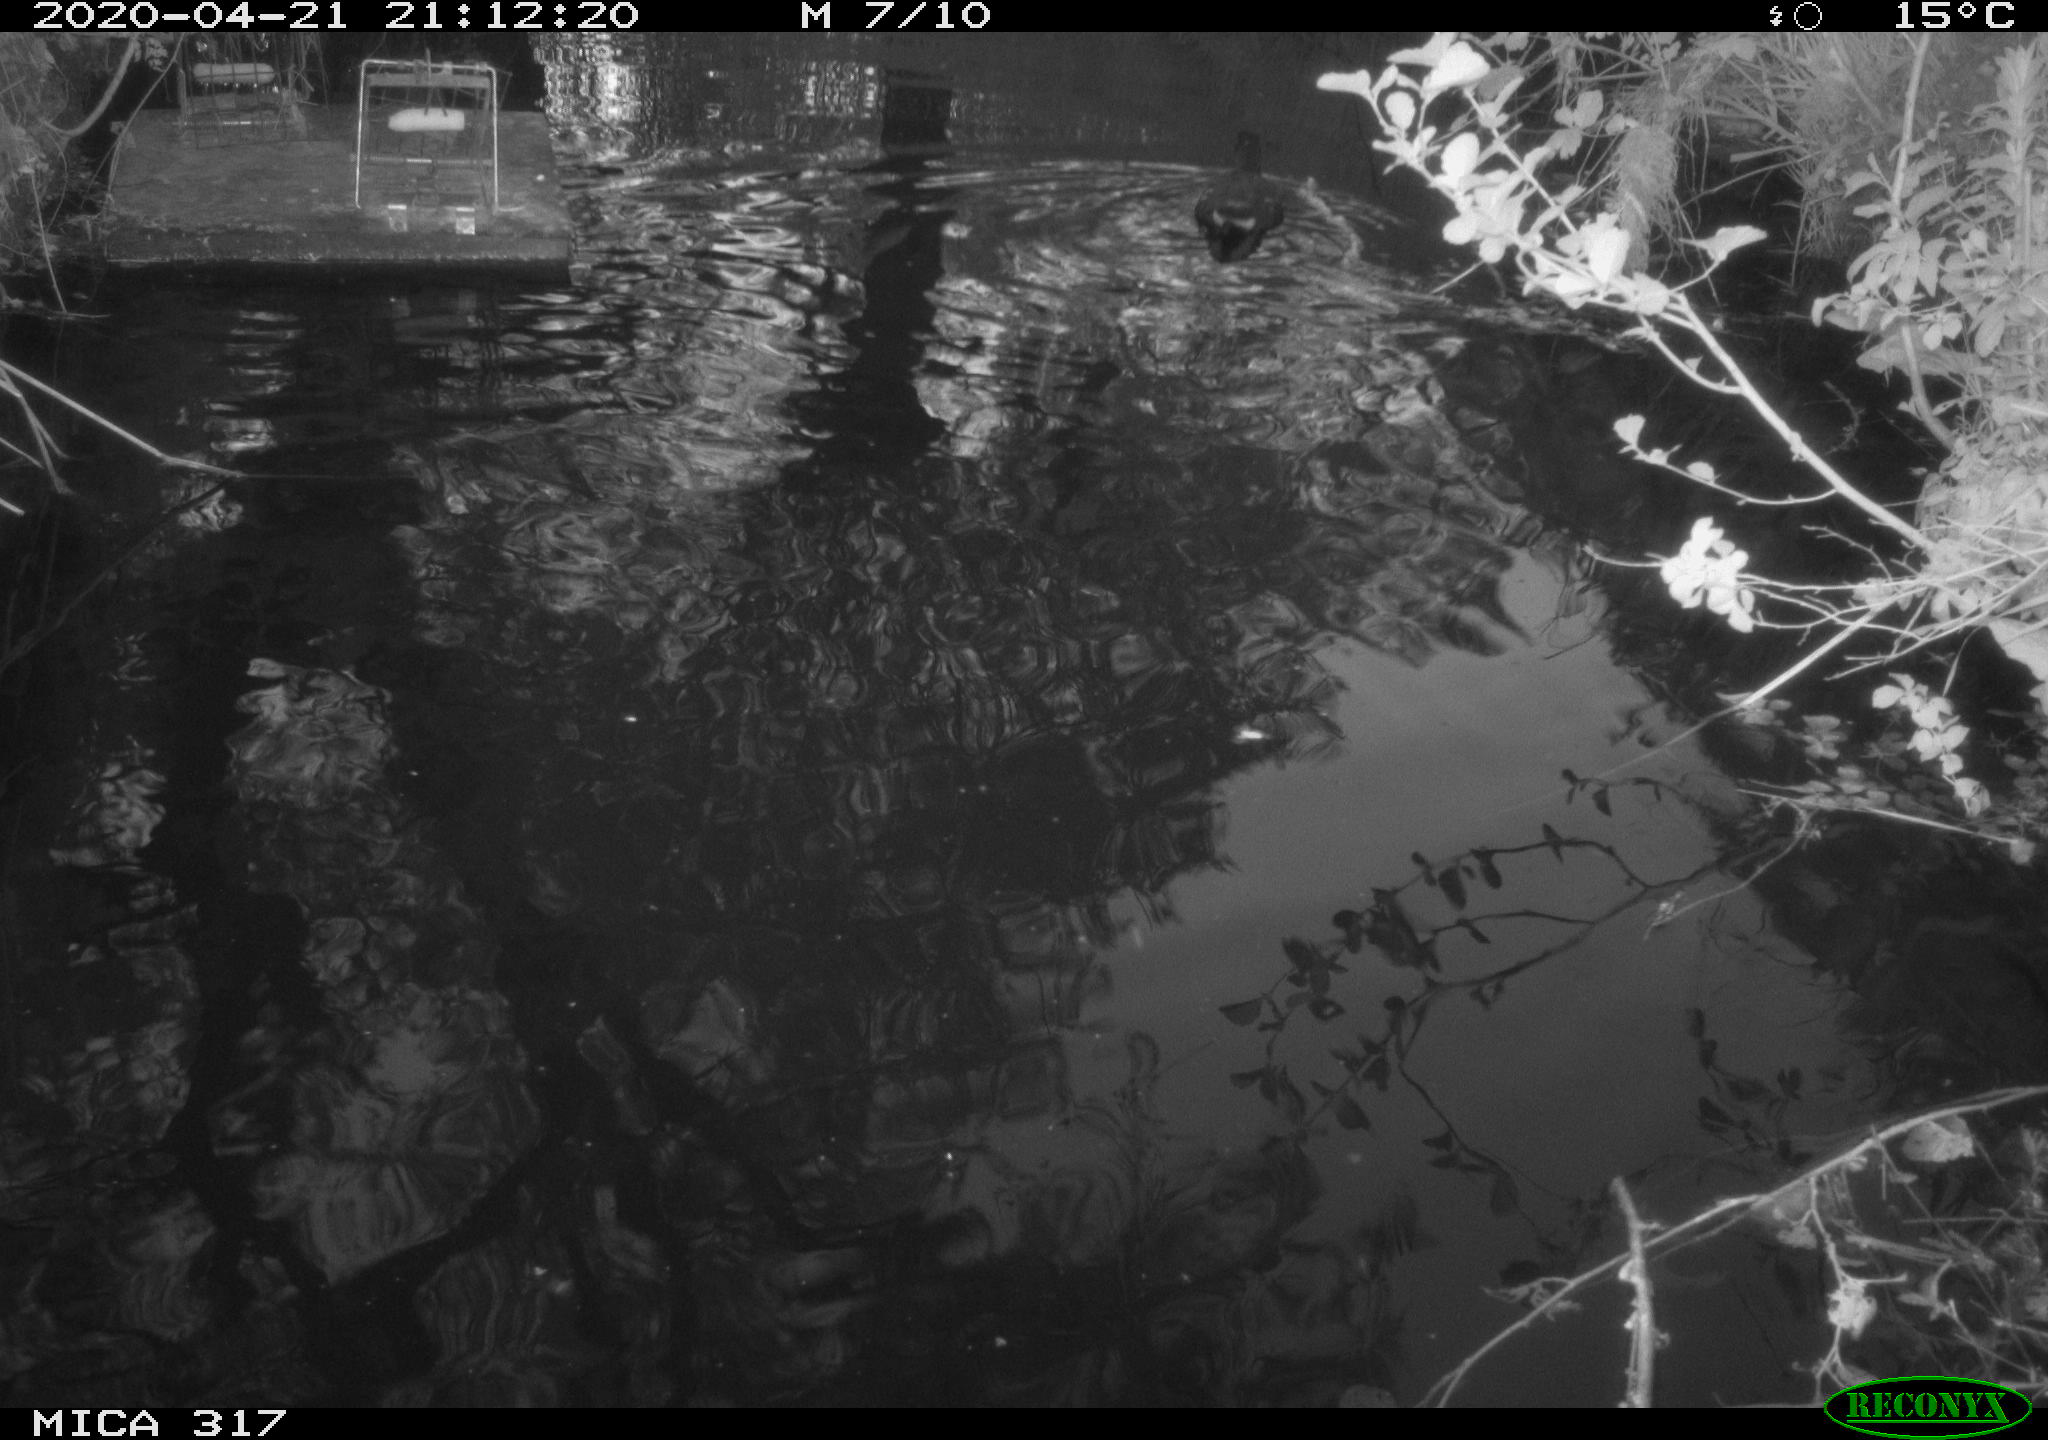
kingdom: Animalia
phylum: Chordata
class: Aves
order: Gruiformes
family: Rallidae
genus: Gallinula
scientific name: Gallinula chloropus
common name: Common moorhen
